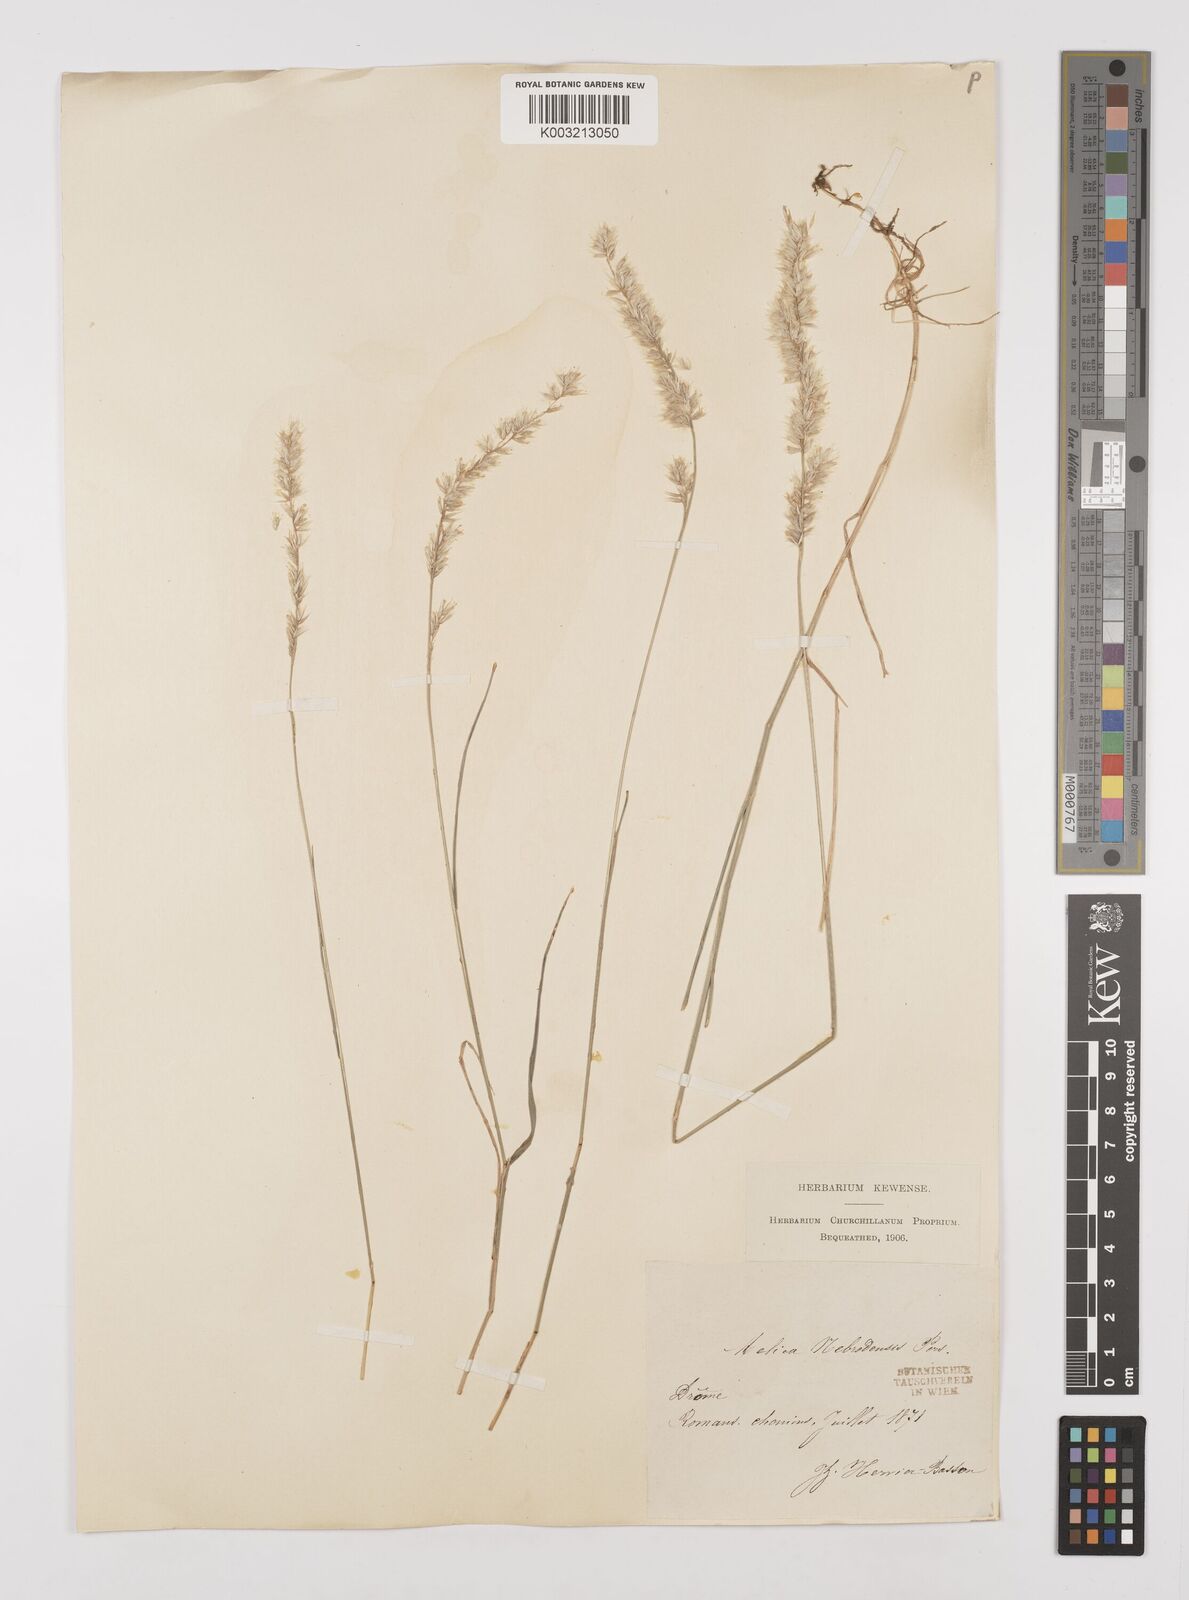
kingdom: Plantae
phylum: Tracheophyta
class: Liliopsida
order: Poales
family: Poaceae
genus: Melica
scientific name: Melica ciliata
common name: Hairy melicgrass
